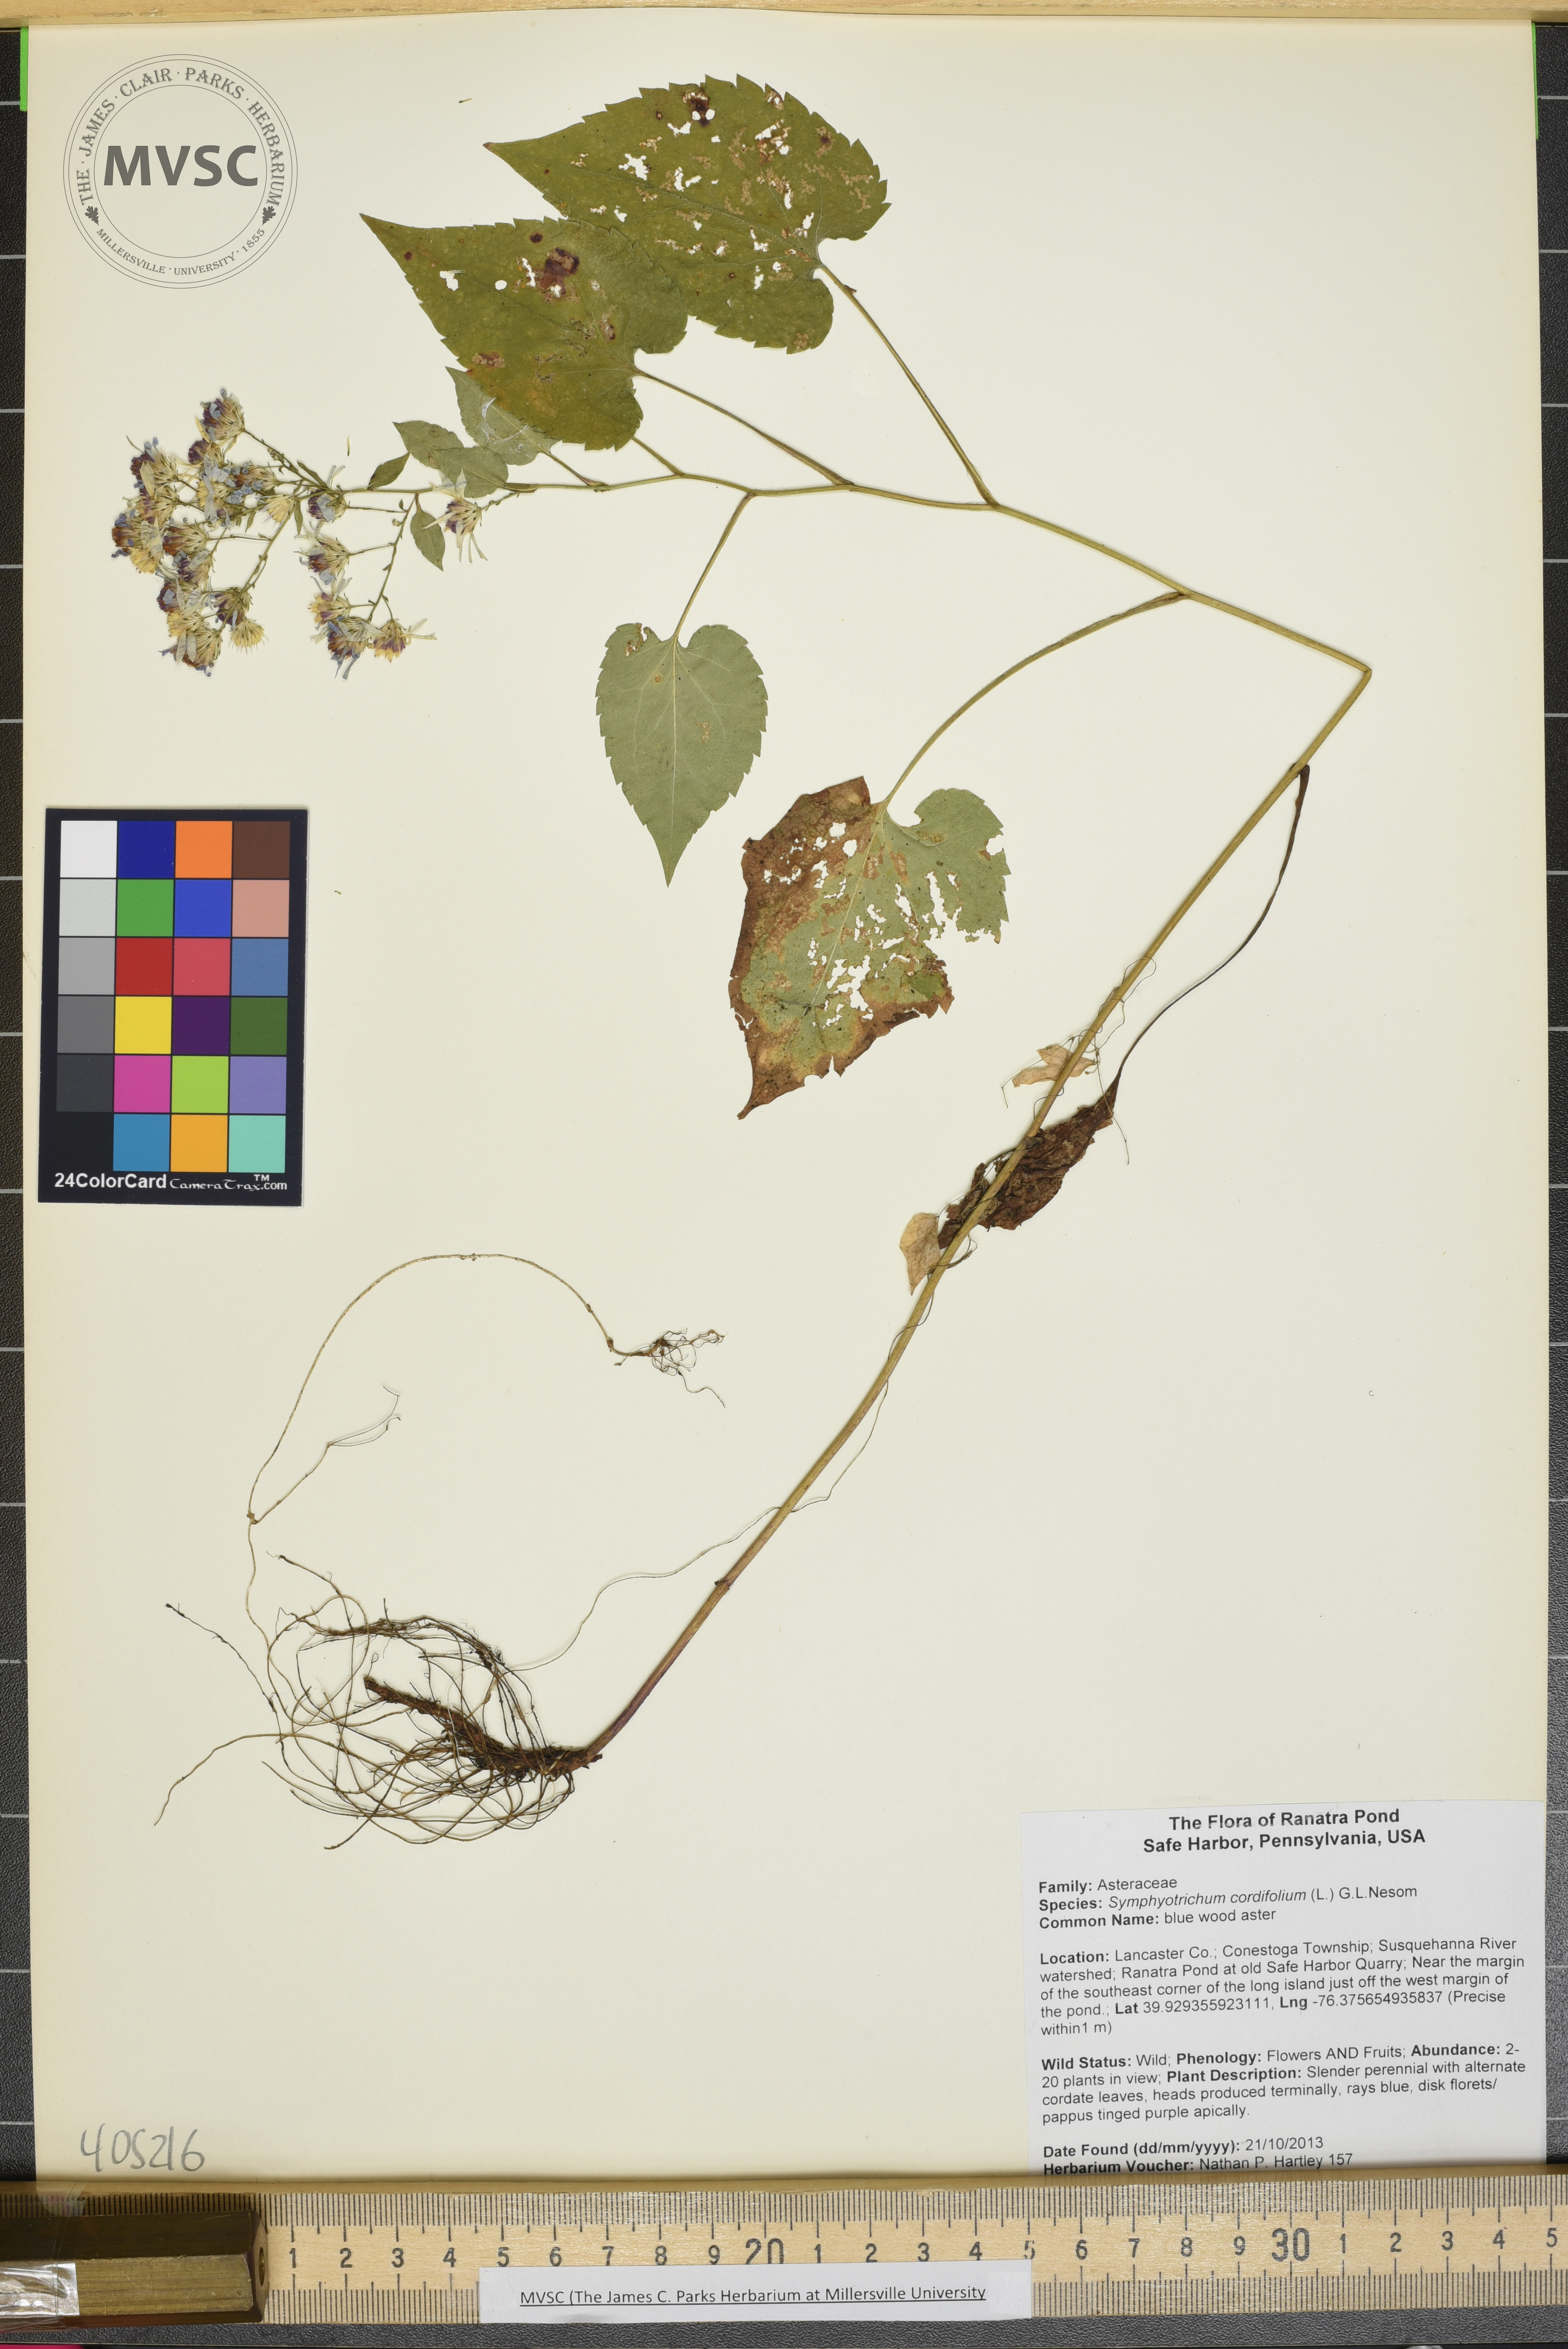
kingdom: Plantae
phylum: Tracheophyta
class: Magnoliopsida
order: Asterales
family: Asteraceae
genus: Symphyotrichum
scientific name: Symphyotrichum cordifolium
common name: blue wood aster
